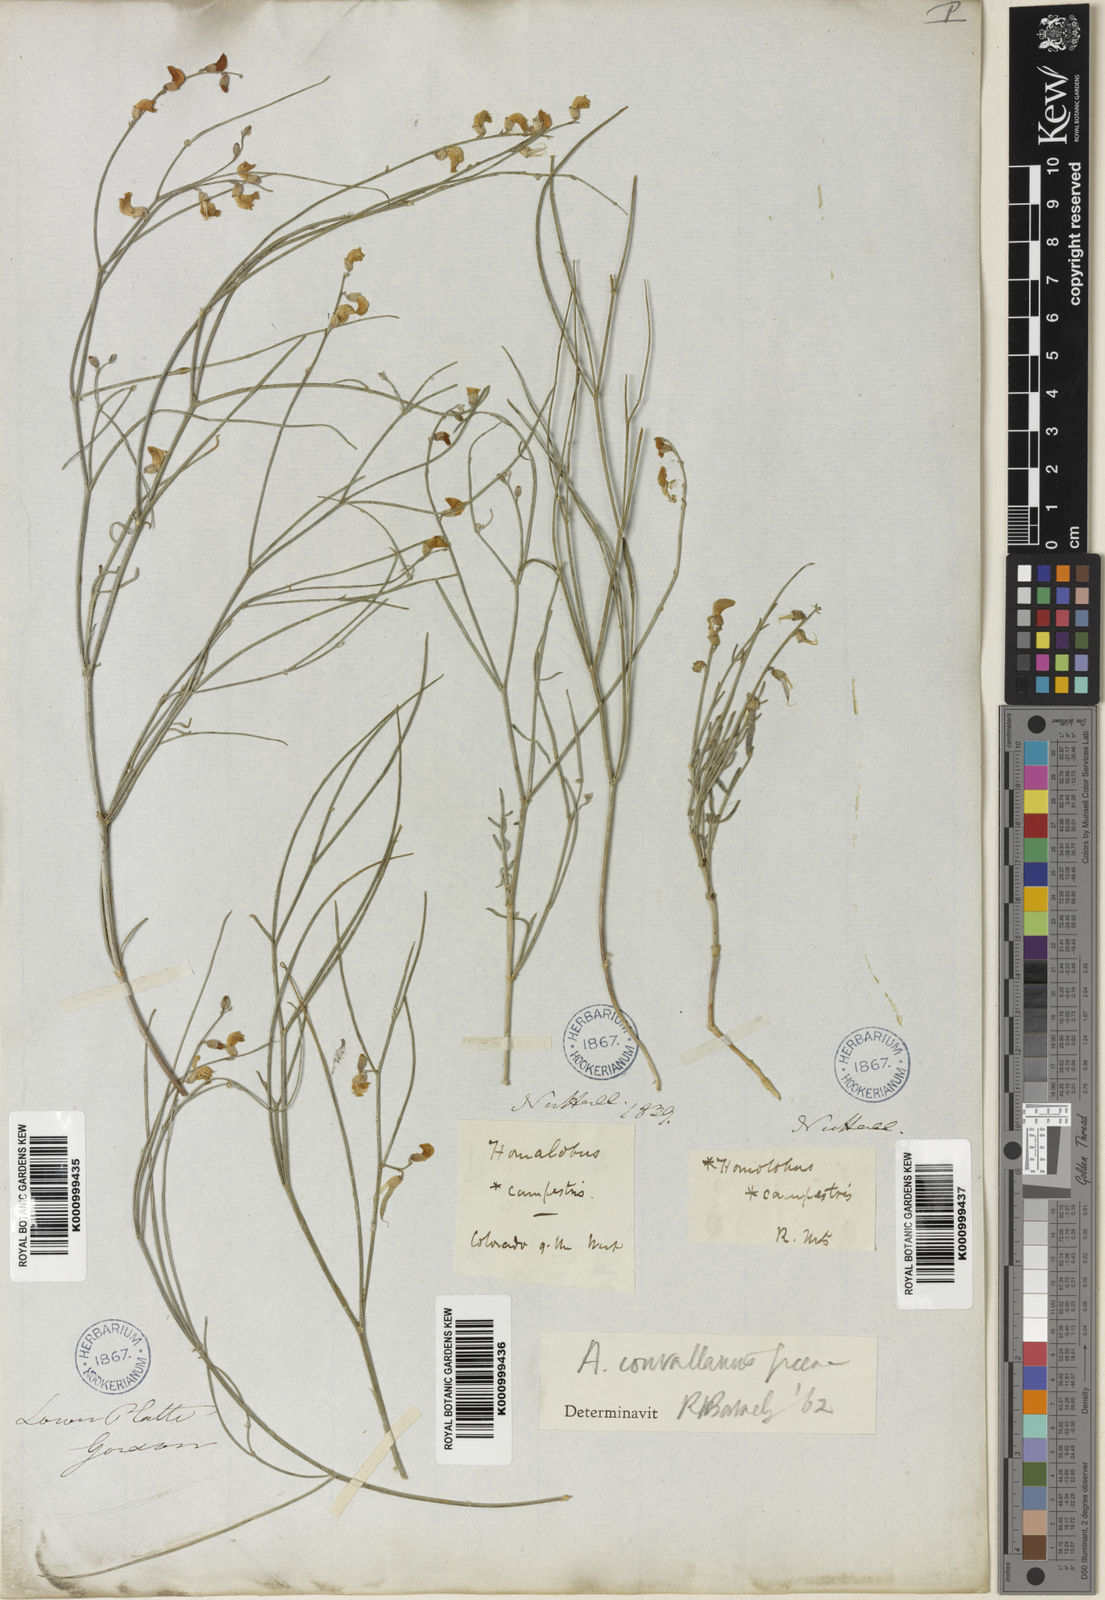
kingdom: Plantae
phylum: Tracheophyta
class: Magnoliopsida
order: Fabales
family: Fabaceae
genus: Astragalus
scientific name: Astragalus convallarius
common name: Lesser rushy milk-vetch
